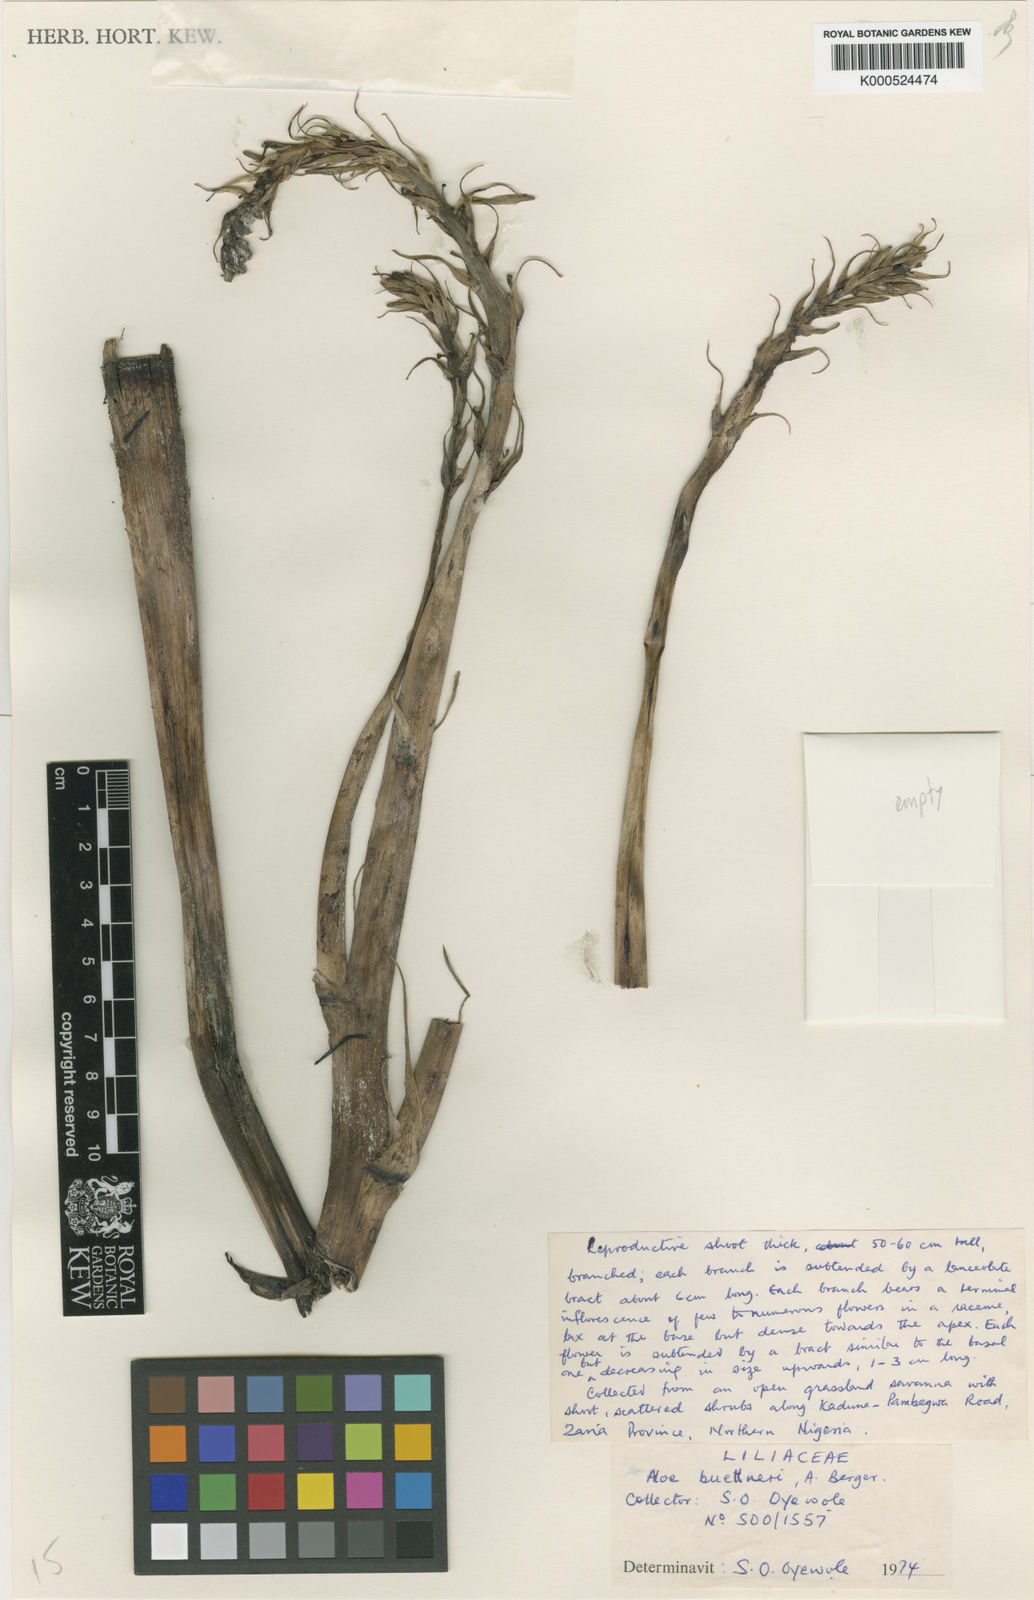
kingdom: Plantae
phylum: Tracheophyta
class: Liliopsida
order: Asparagales
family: Asphodelaceae
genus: Aloe
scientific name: Aloe buettneri
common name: West african aloe
